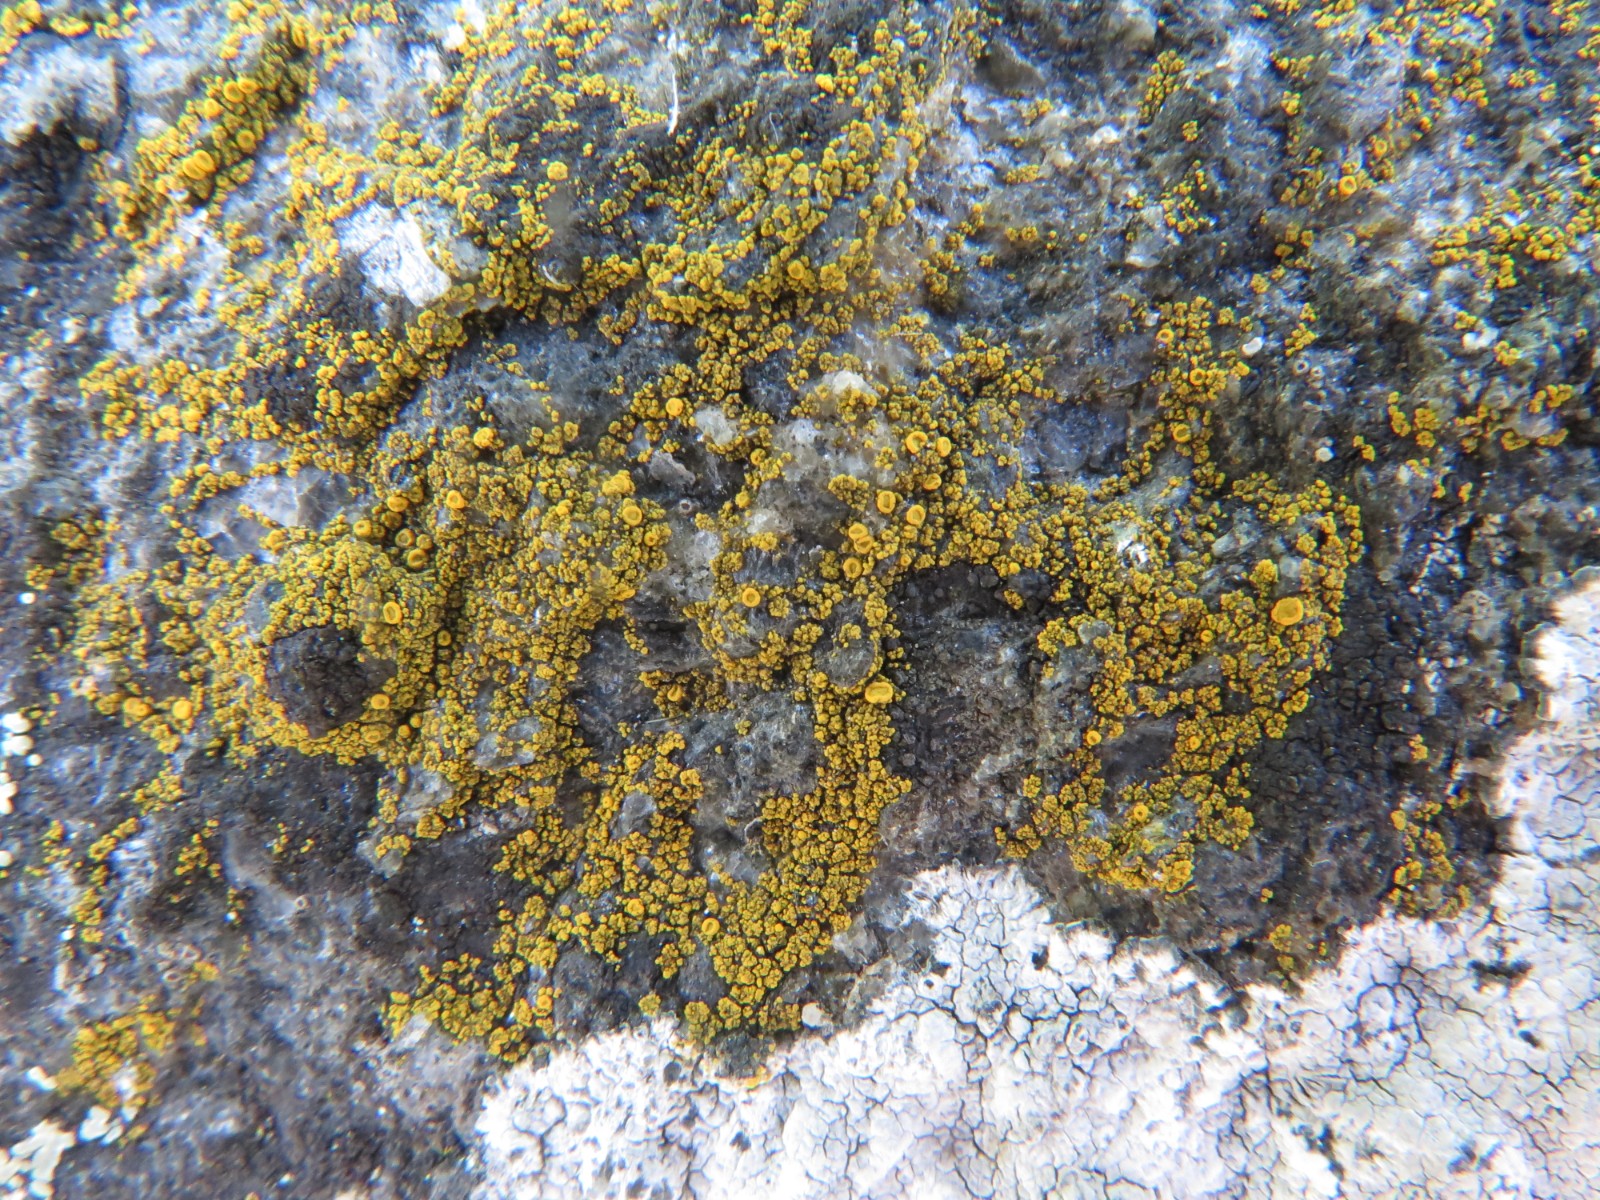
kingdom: Fungi
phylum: Ascomycota
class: Lecanoromycetes
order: Teloschistales
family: Teloschistaceae
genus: Flavoplaca
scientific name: Flavoplaca arcis
